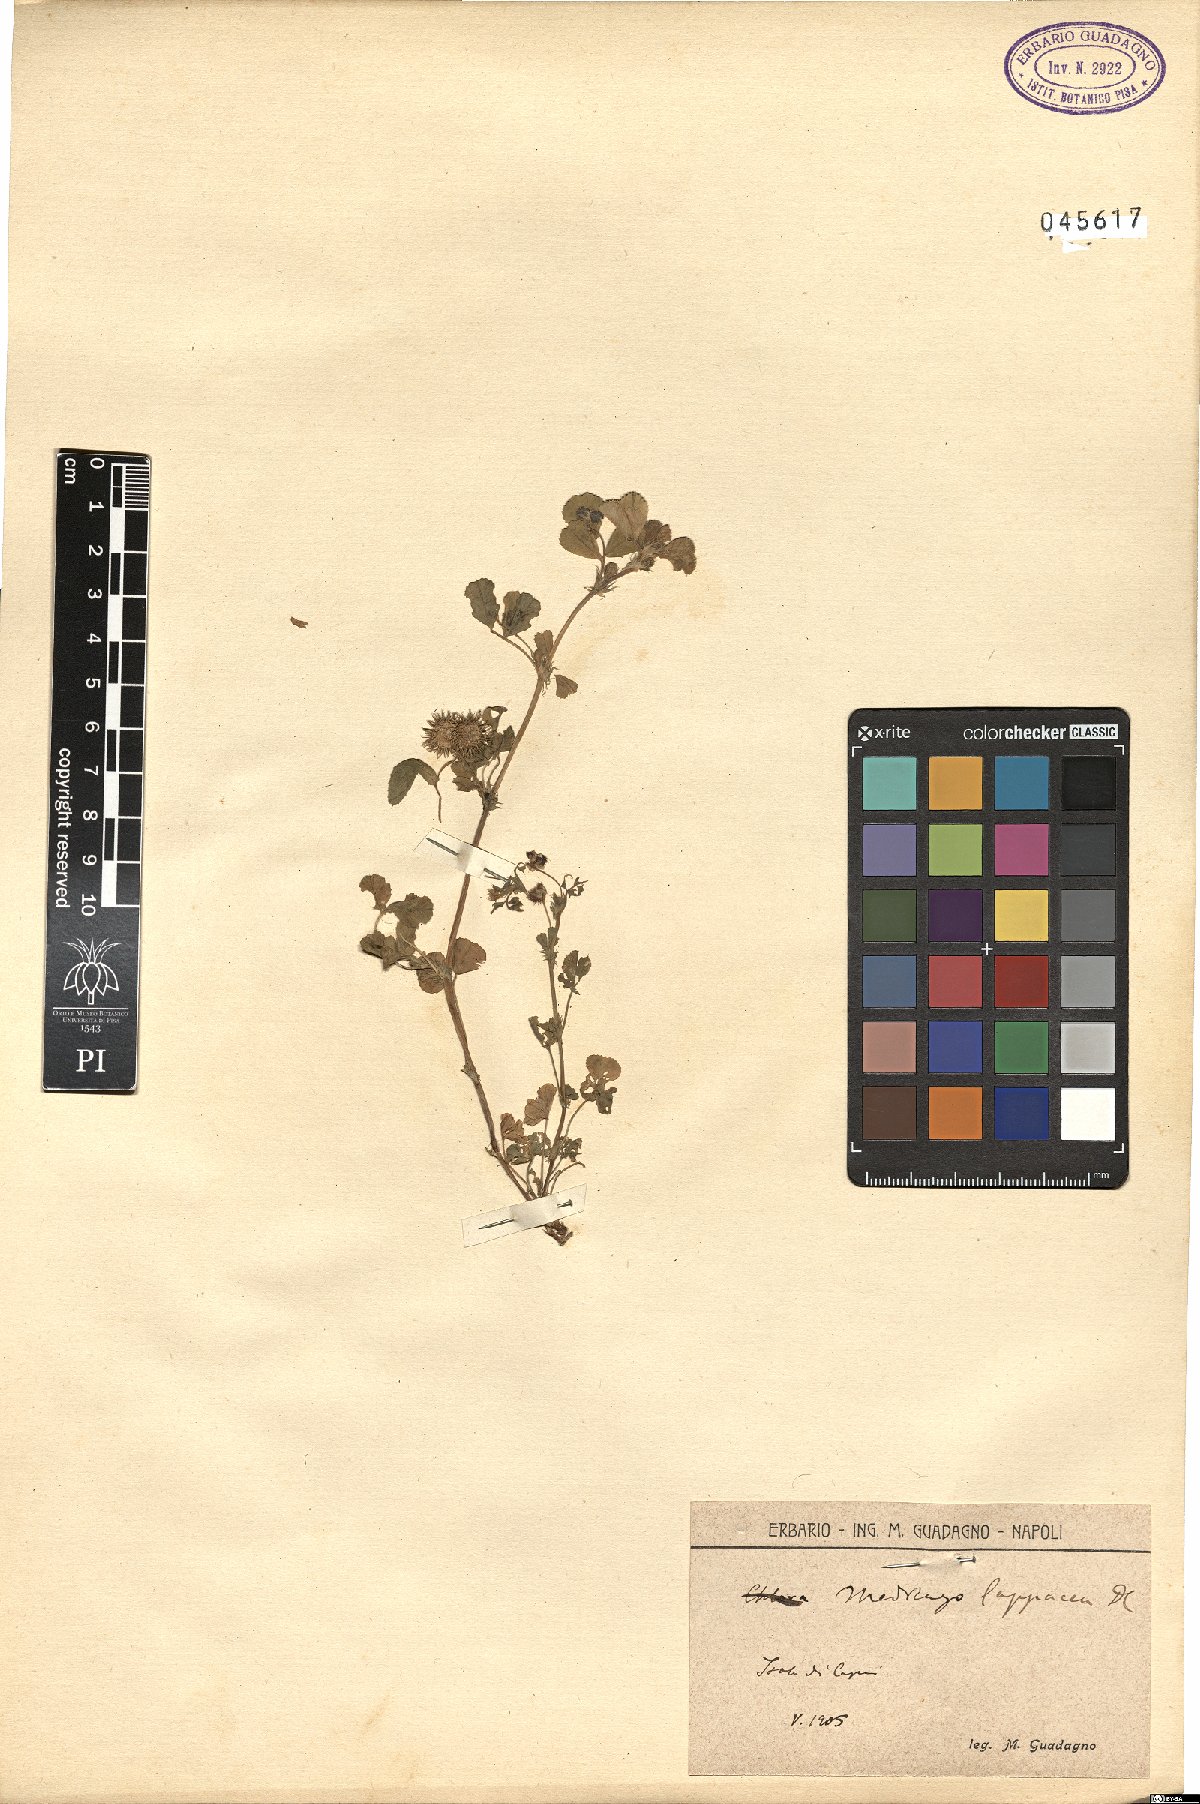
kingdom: Plantae
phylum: Tracheophyta
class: Magnoliopsida
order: Fabales
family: Fabaceae
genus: Medicago
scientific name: Medicago polymorpha
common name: Burclover
